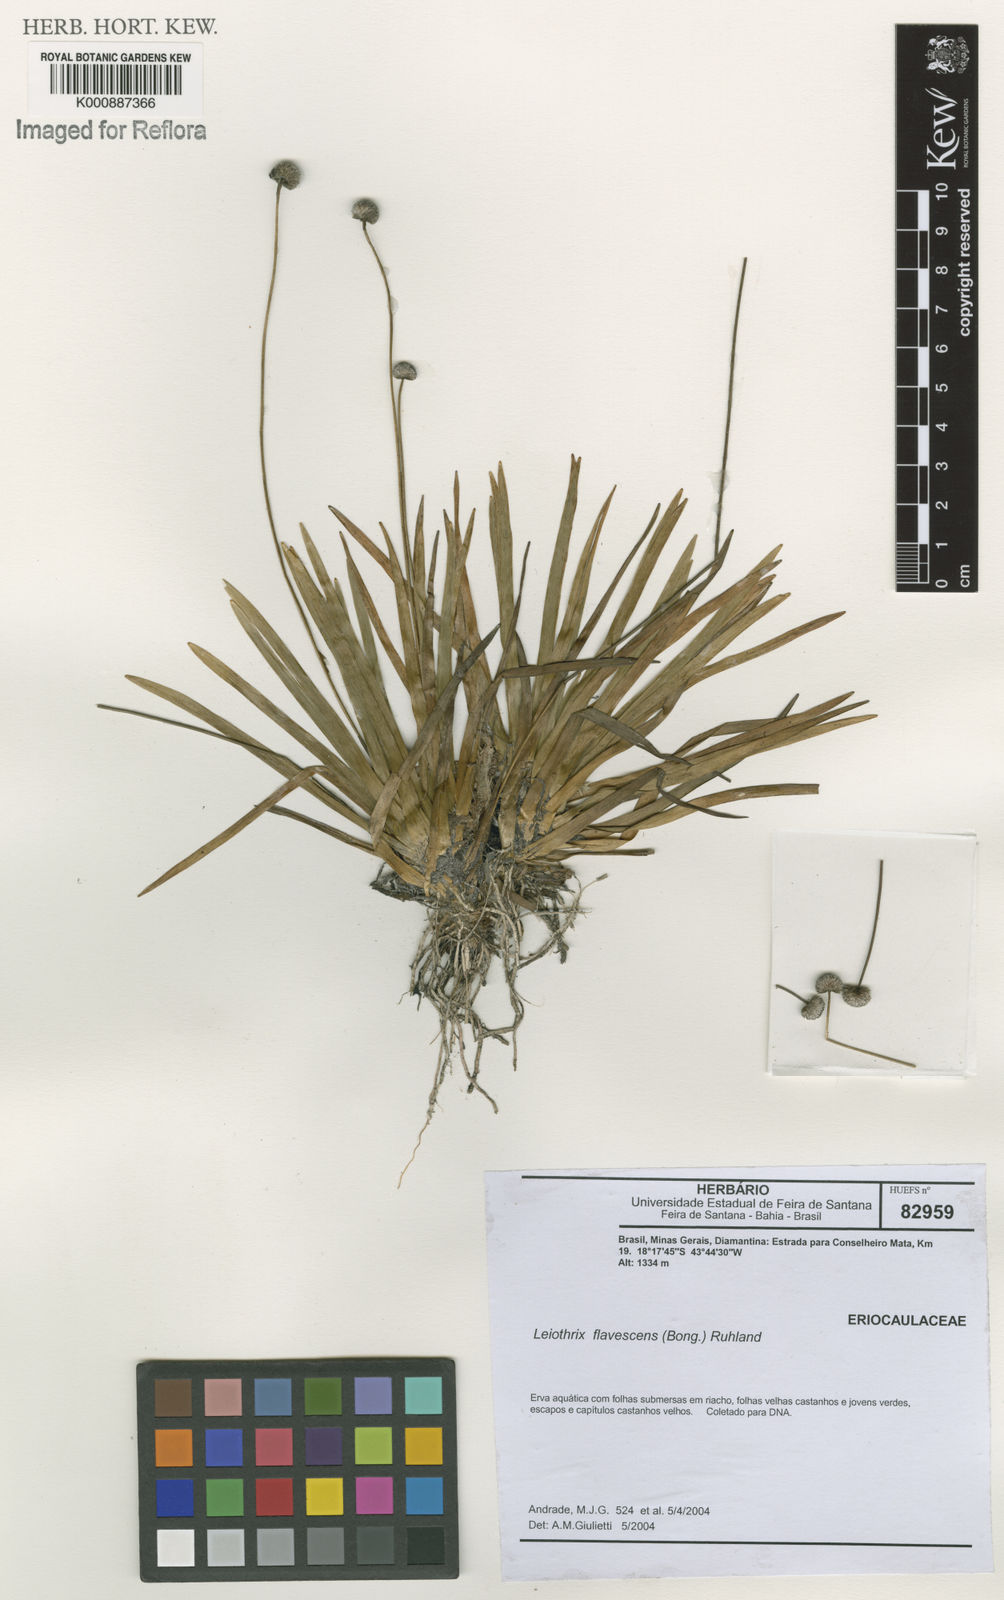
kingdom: Plantae
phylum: Tracheophyta
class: Liliopsida
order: Poales
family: Eriocaulaceae
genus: Leiothrix
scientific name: Leiothrix flavescens
